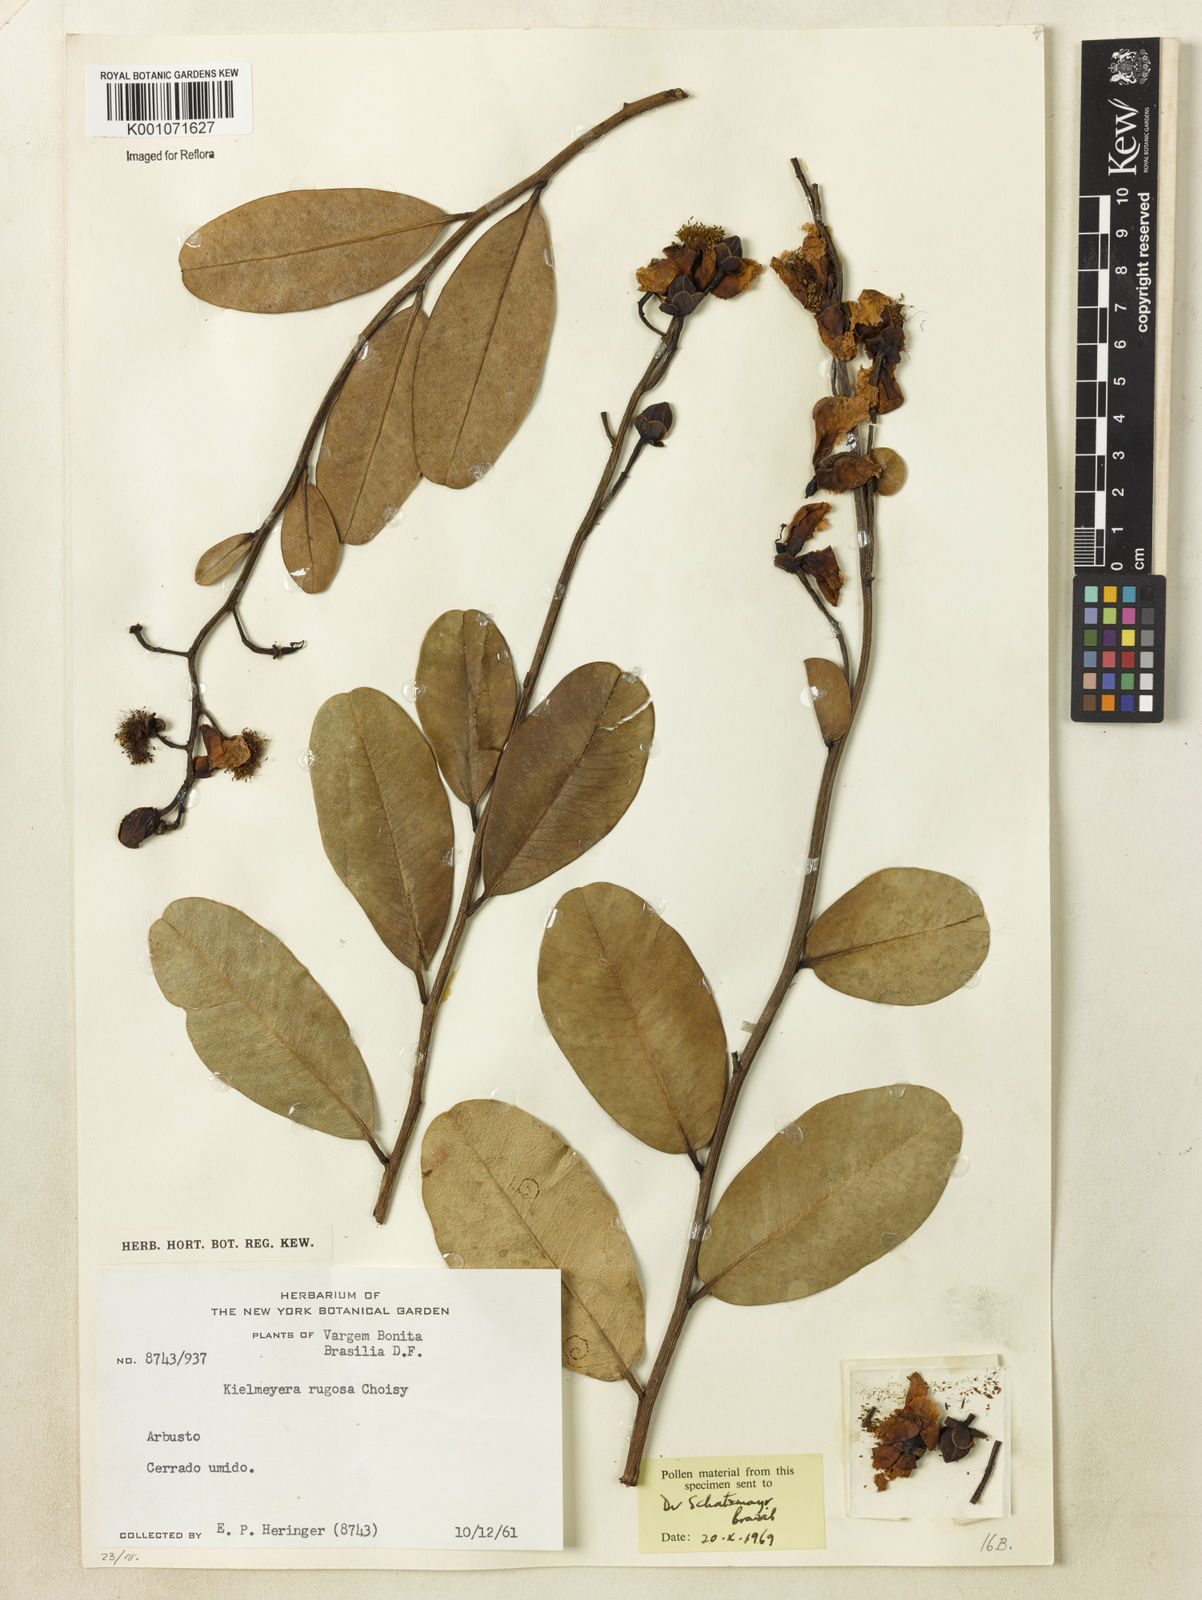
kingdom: Plantae
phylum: Tracheophyta
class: Magnoliopsida
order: Malpighiales
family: Calophyllaceae
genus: Kielmeyera
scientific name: Kielmeyera variabilis
